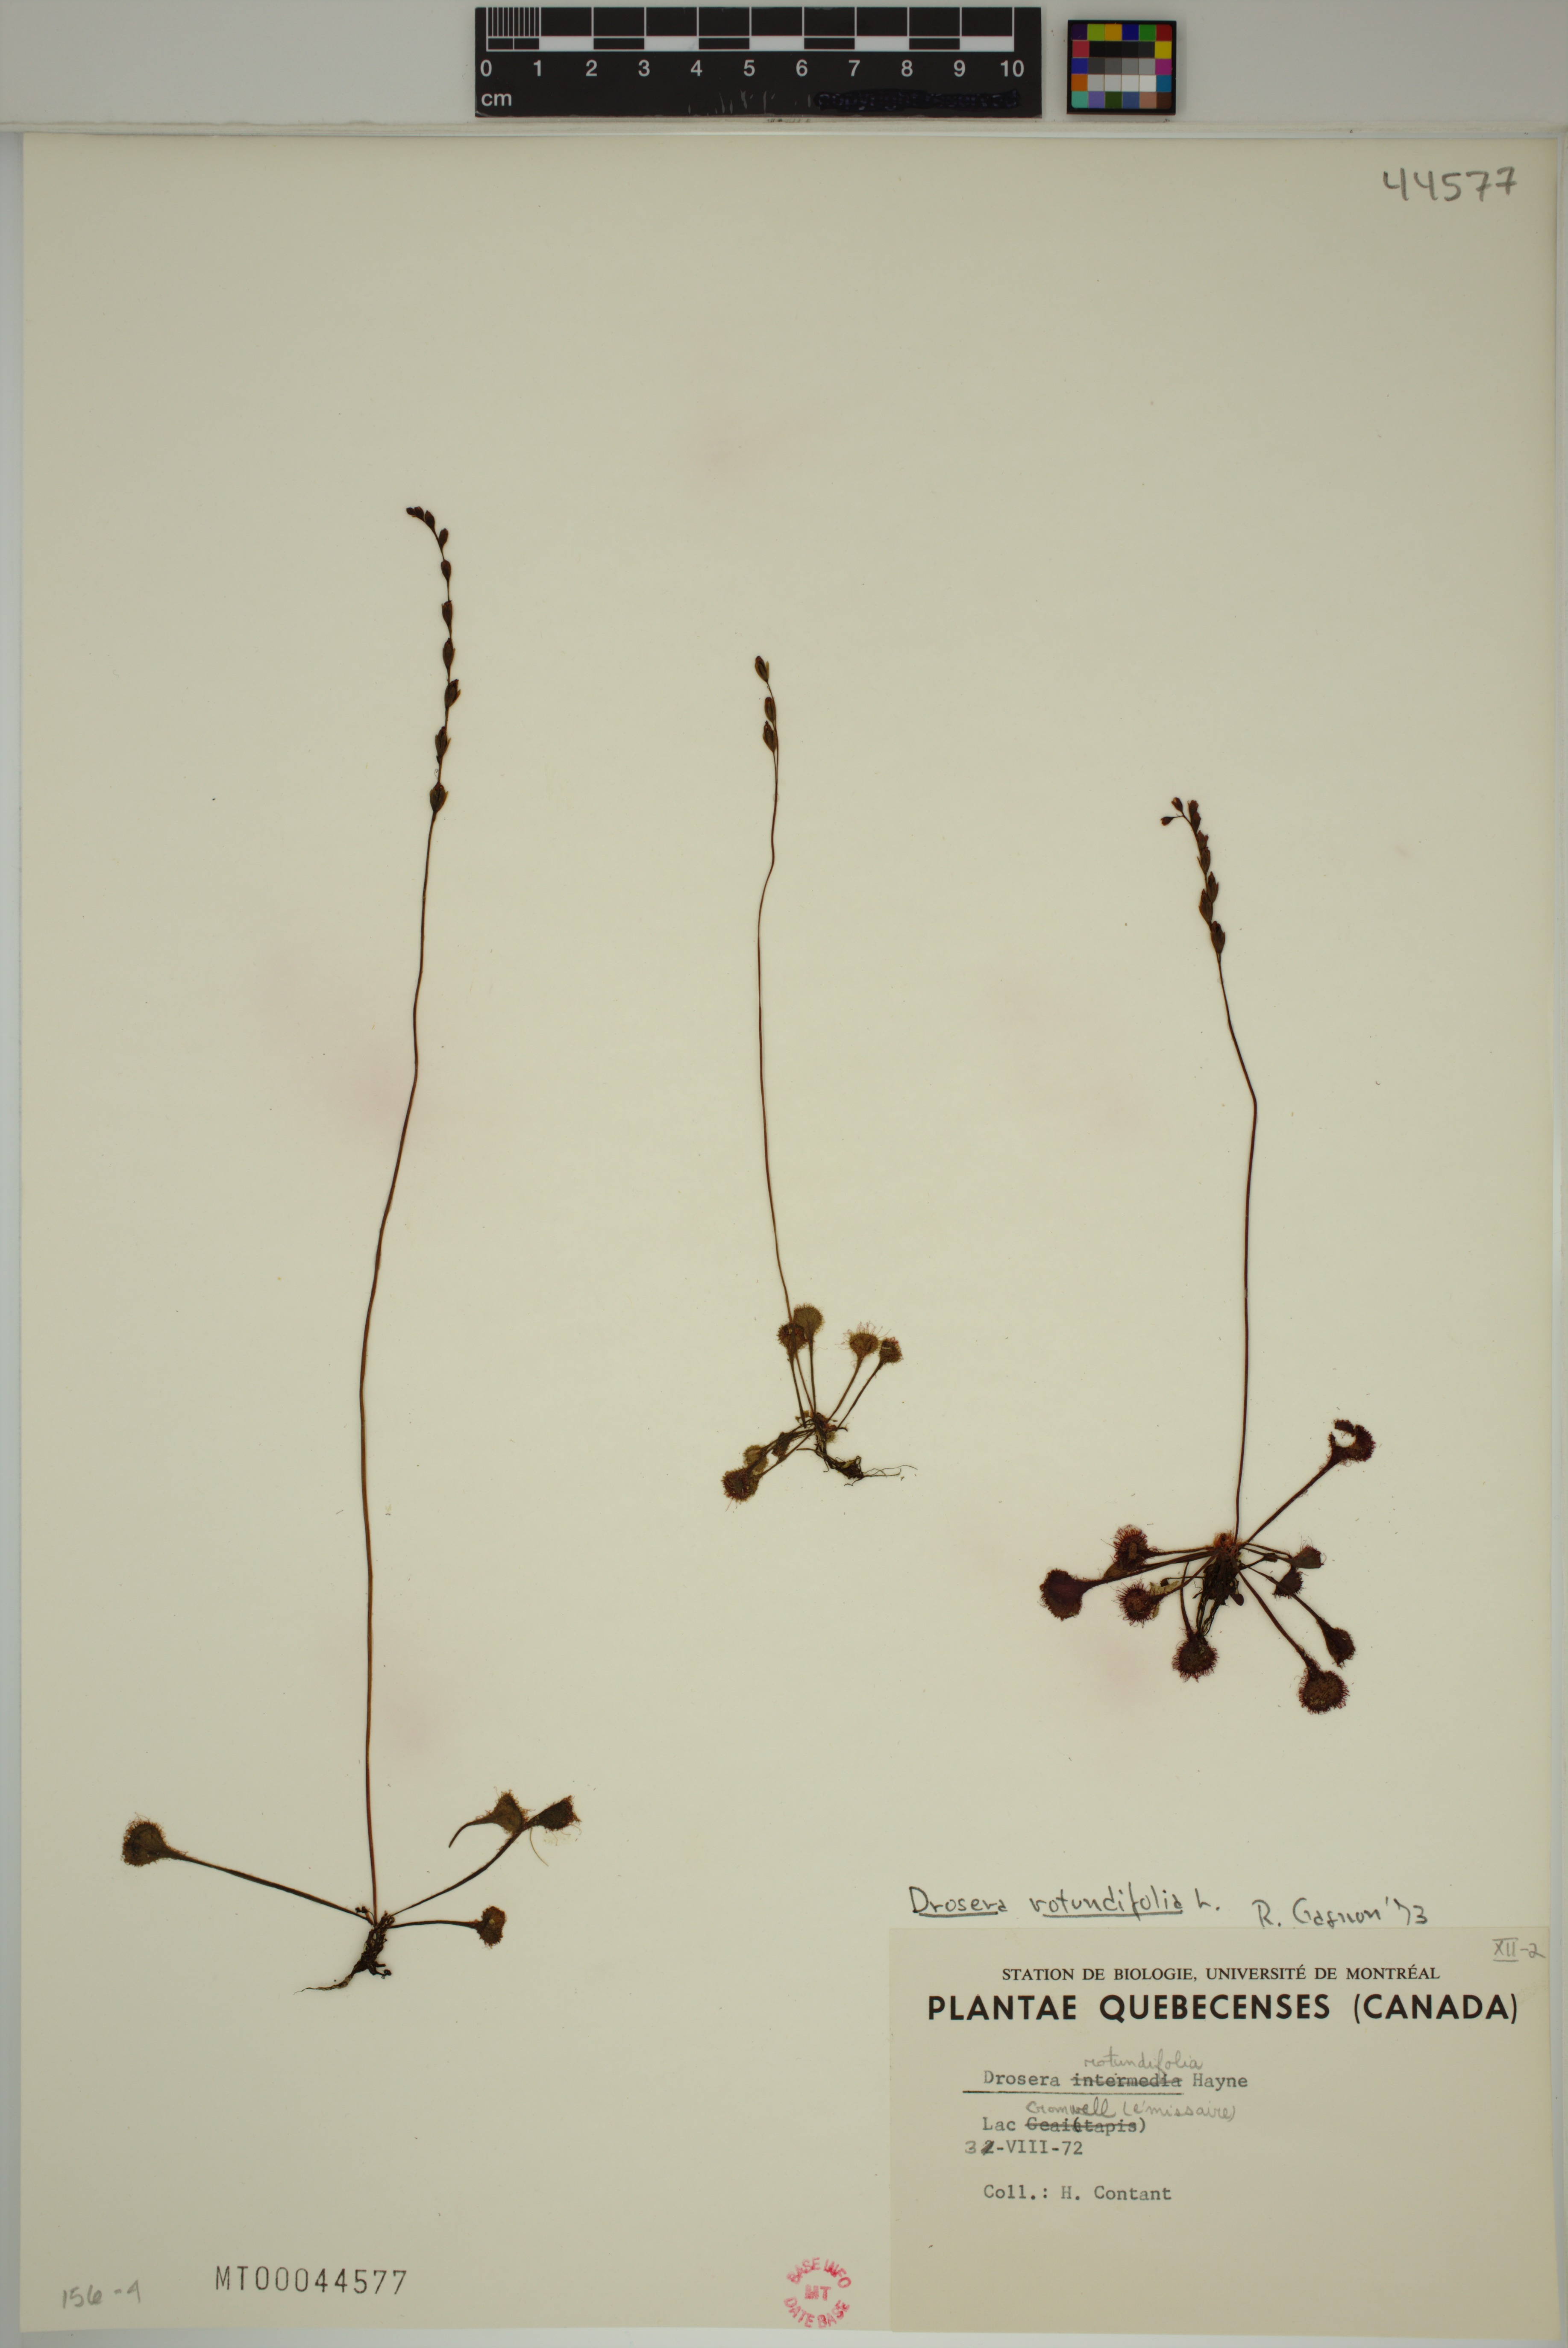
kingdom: Plantae
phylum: Tracheophyta
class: Magnoliopsida
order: Caryophyllales
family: Droseraceae
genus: Drosera
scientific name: Drosera rotundifolia
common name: Round-leaved sundew
